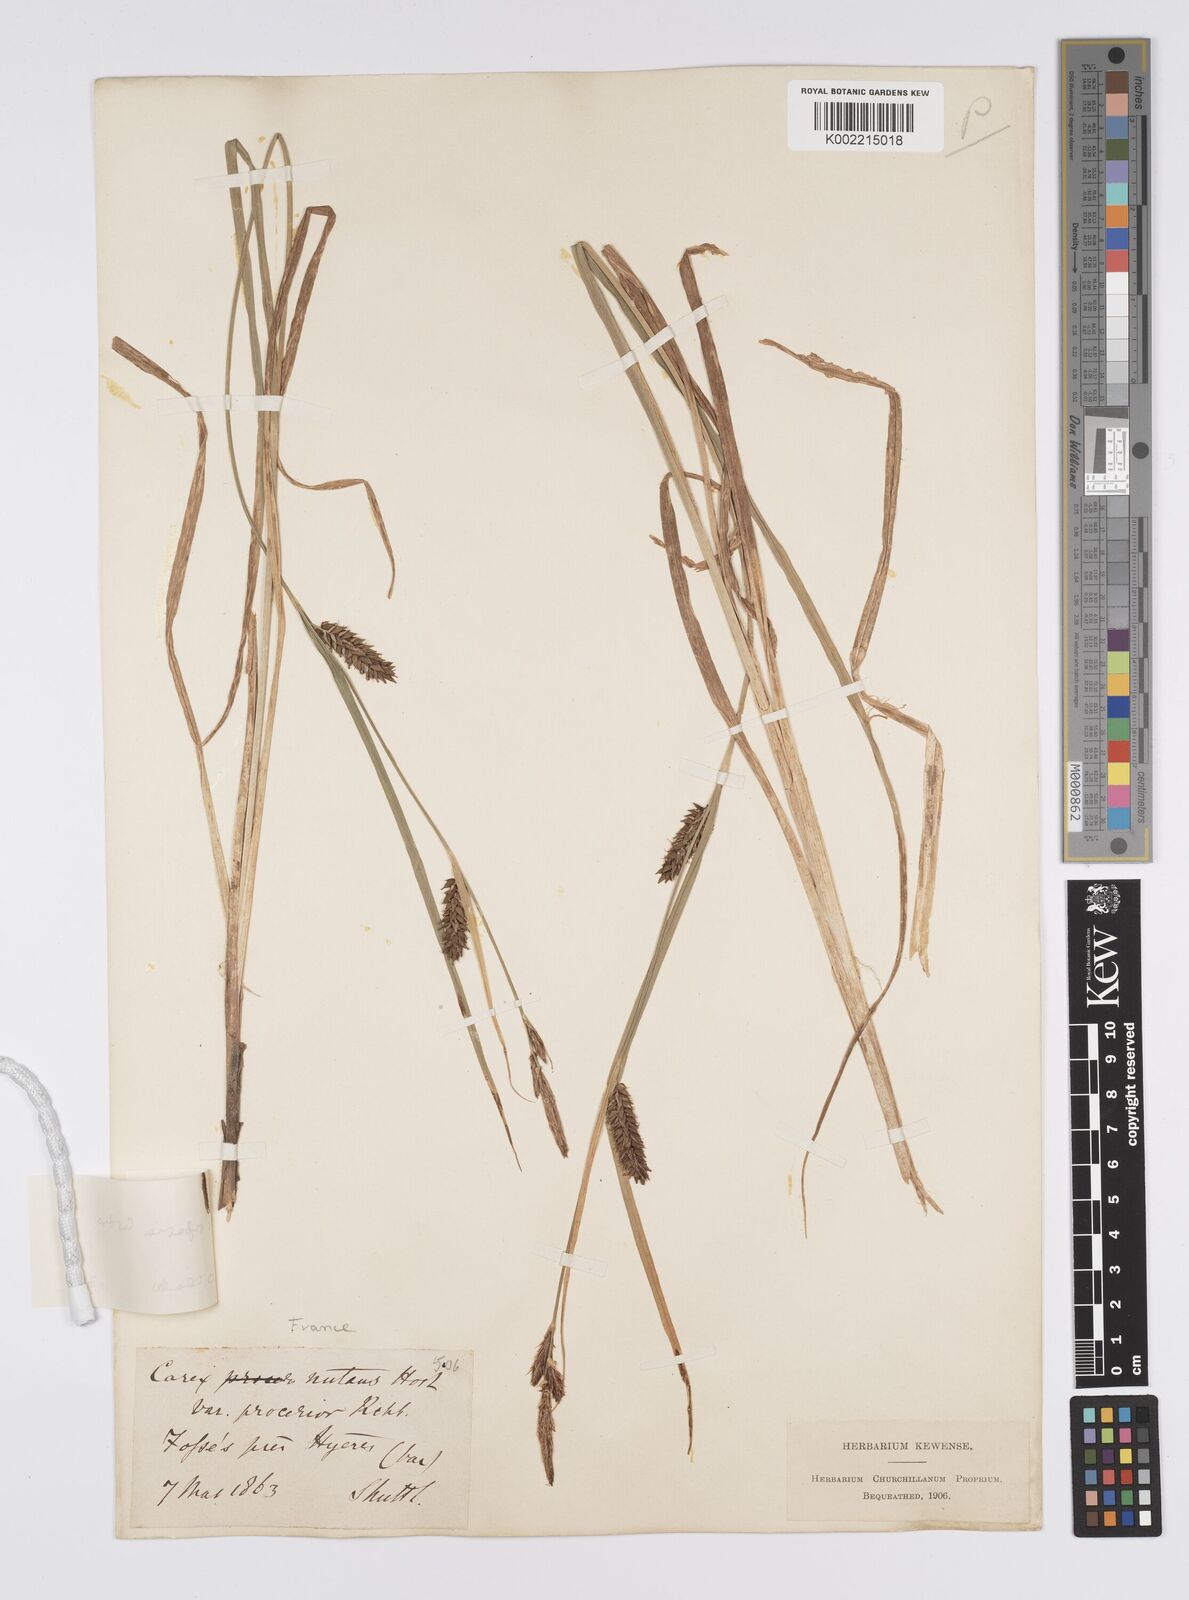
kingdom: Plantae
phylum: Tracheophyta
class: Liliopsida
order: Poales
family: Cyperaceae
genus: Carex
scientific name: Carex riparia
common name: Greater pond-sedge
